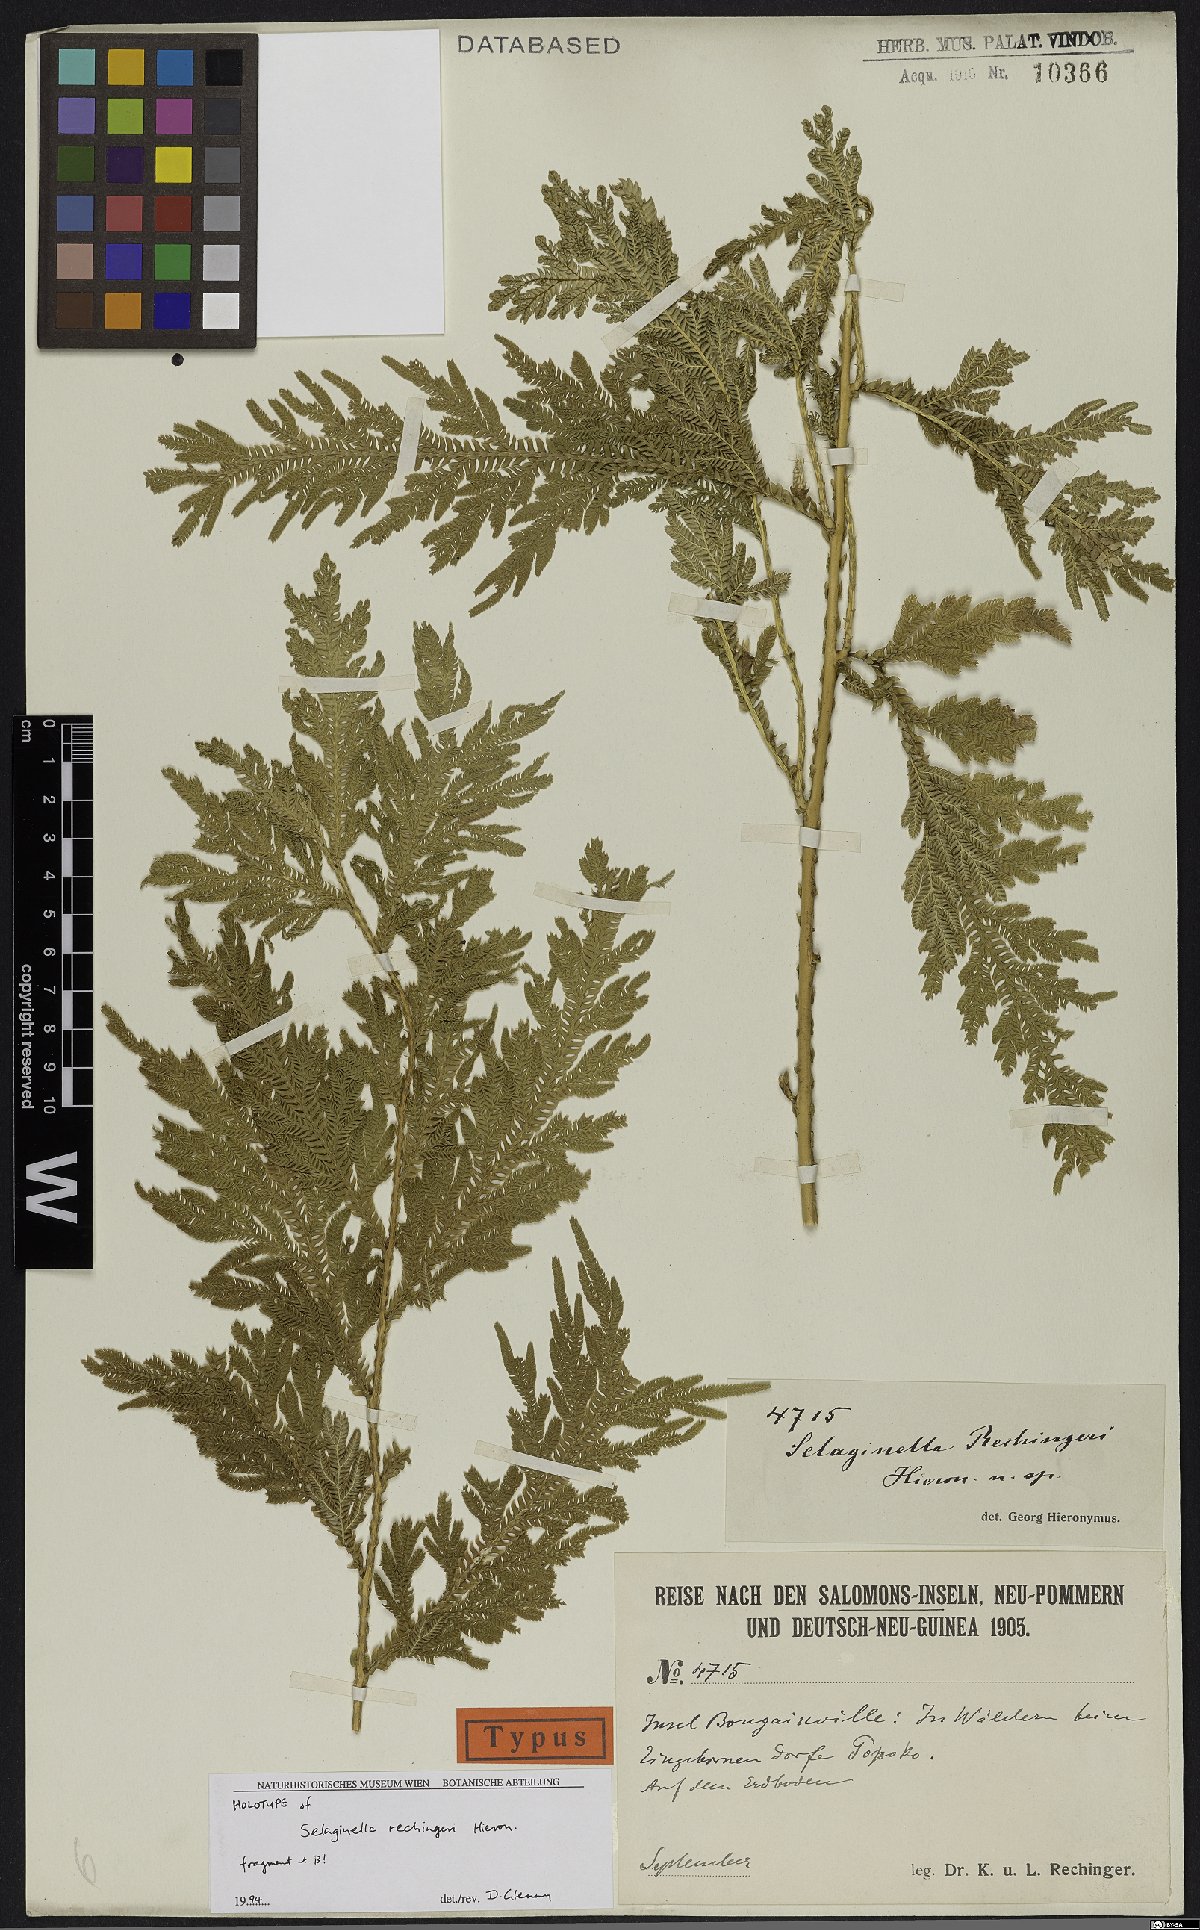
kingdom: Plantae
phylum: Tracheophyta
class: Lycopodiopsida
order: Selaginellales
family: Selaginellaceae
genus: Selaginella
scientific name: Selaginella rechingeri
